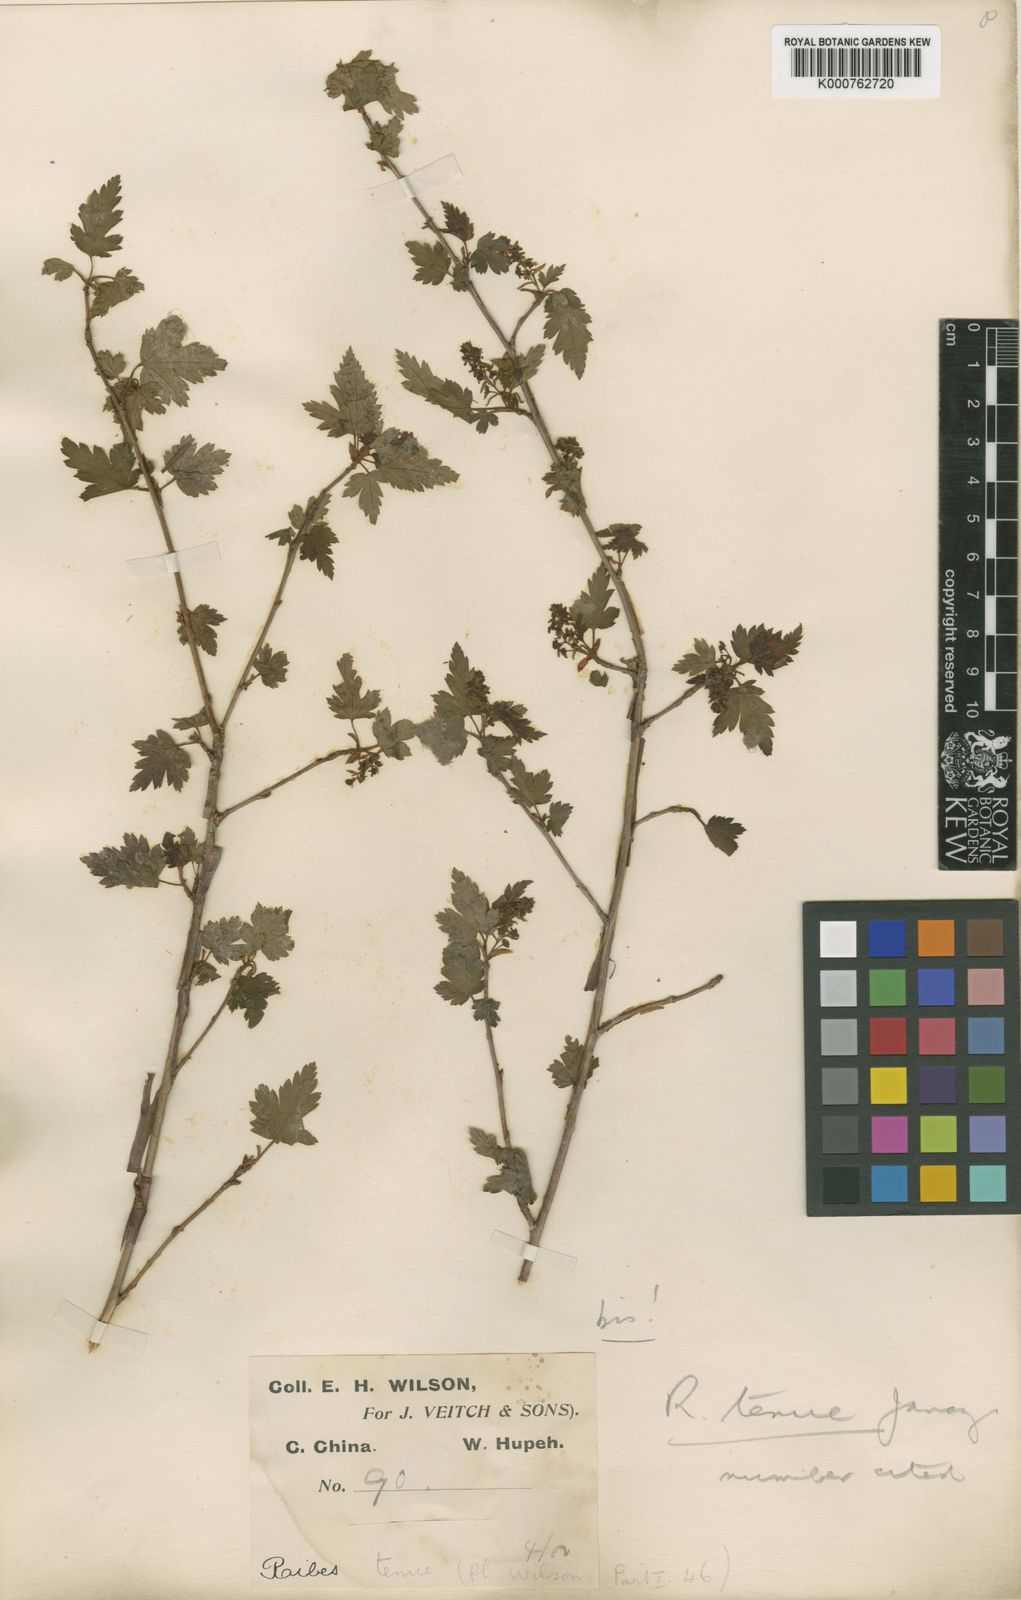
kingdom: Plantae
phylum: Tracheophyta
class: Magnoliopsida
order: Saxifragales
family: Grossulariaceae
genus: Ribes
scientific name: Ribes tenue
